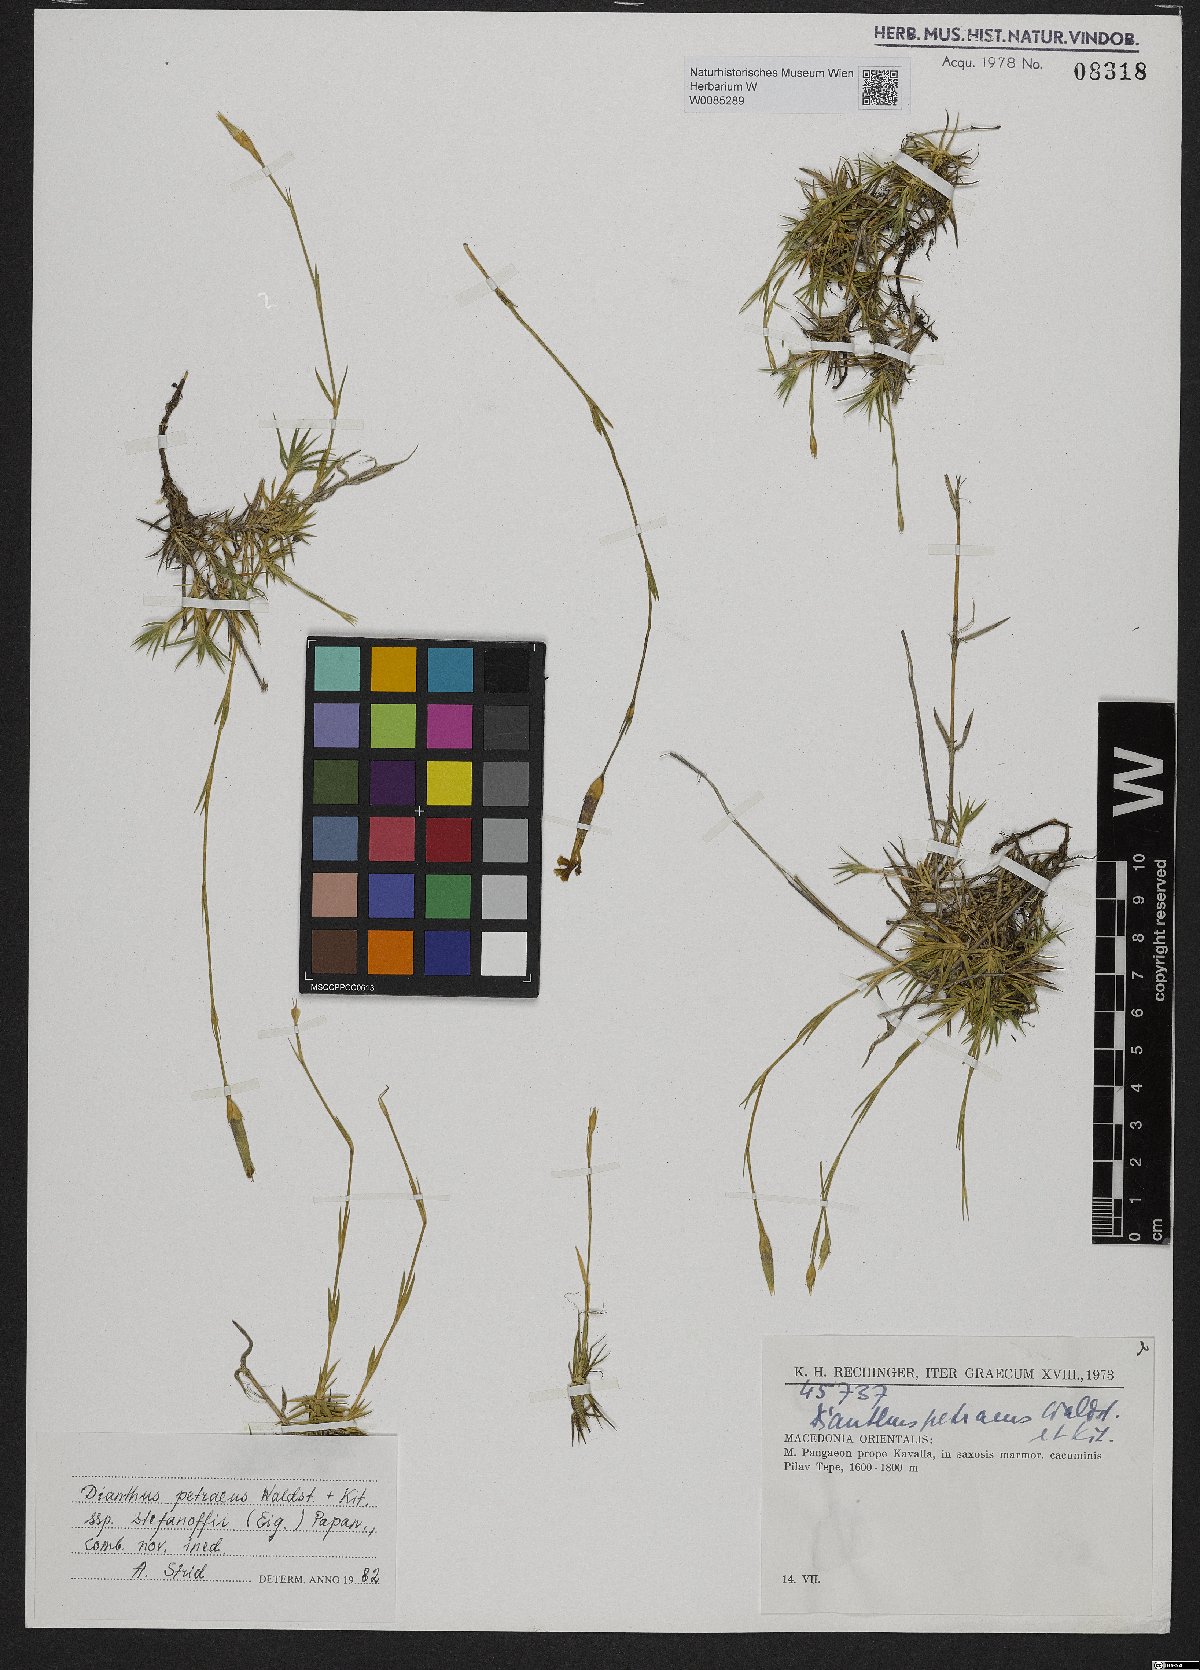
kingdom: Plantae
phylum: Tracheophyta
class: Magnoliopsida
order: Caryophyllales
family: Caryophyllaceae
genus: Dianthus
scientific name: Dianthus petraeus
